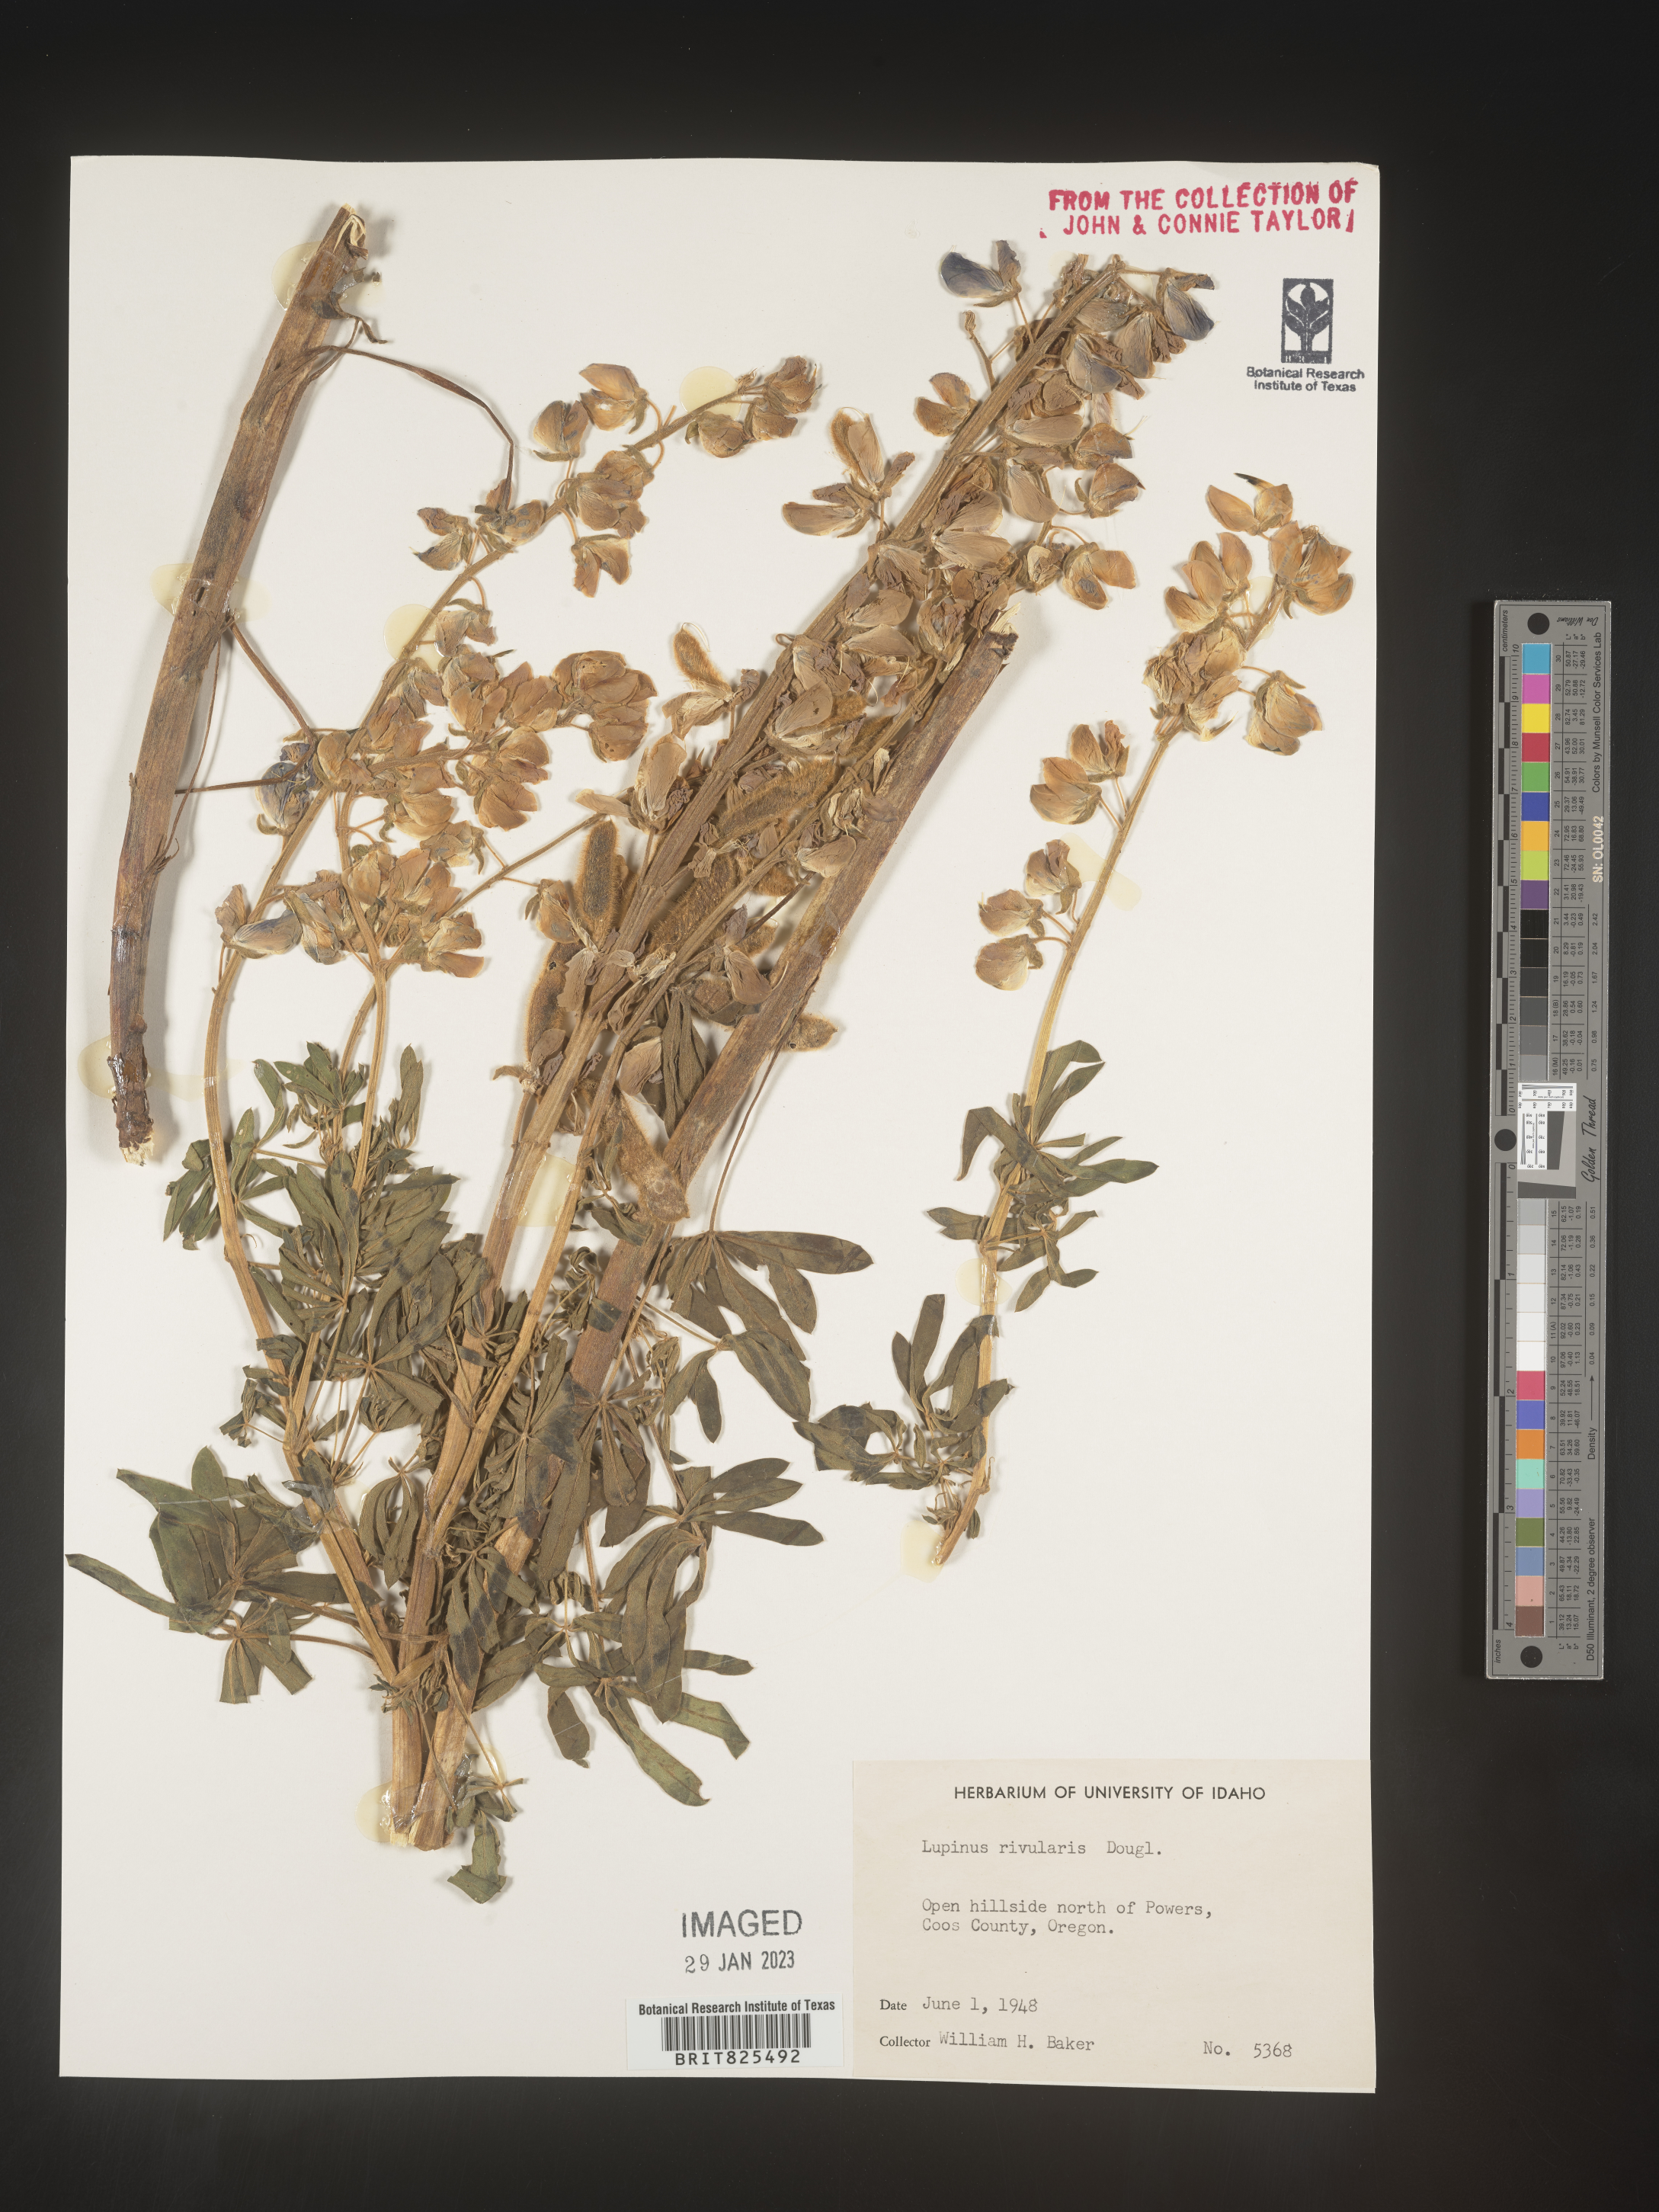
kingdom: Plantae
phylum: Tracheophyta
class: Magnoliopsida
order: Fabales
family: Fabaceae
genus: Lupinus
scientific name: Lupinus
